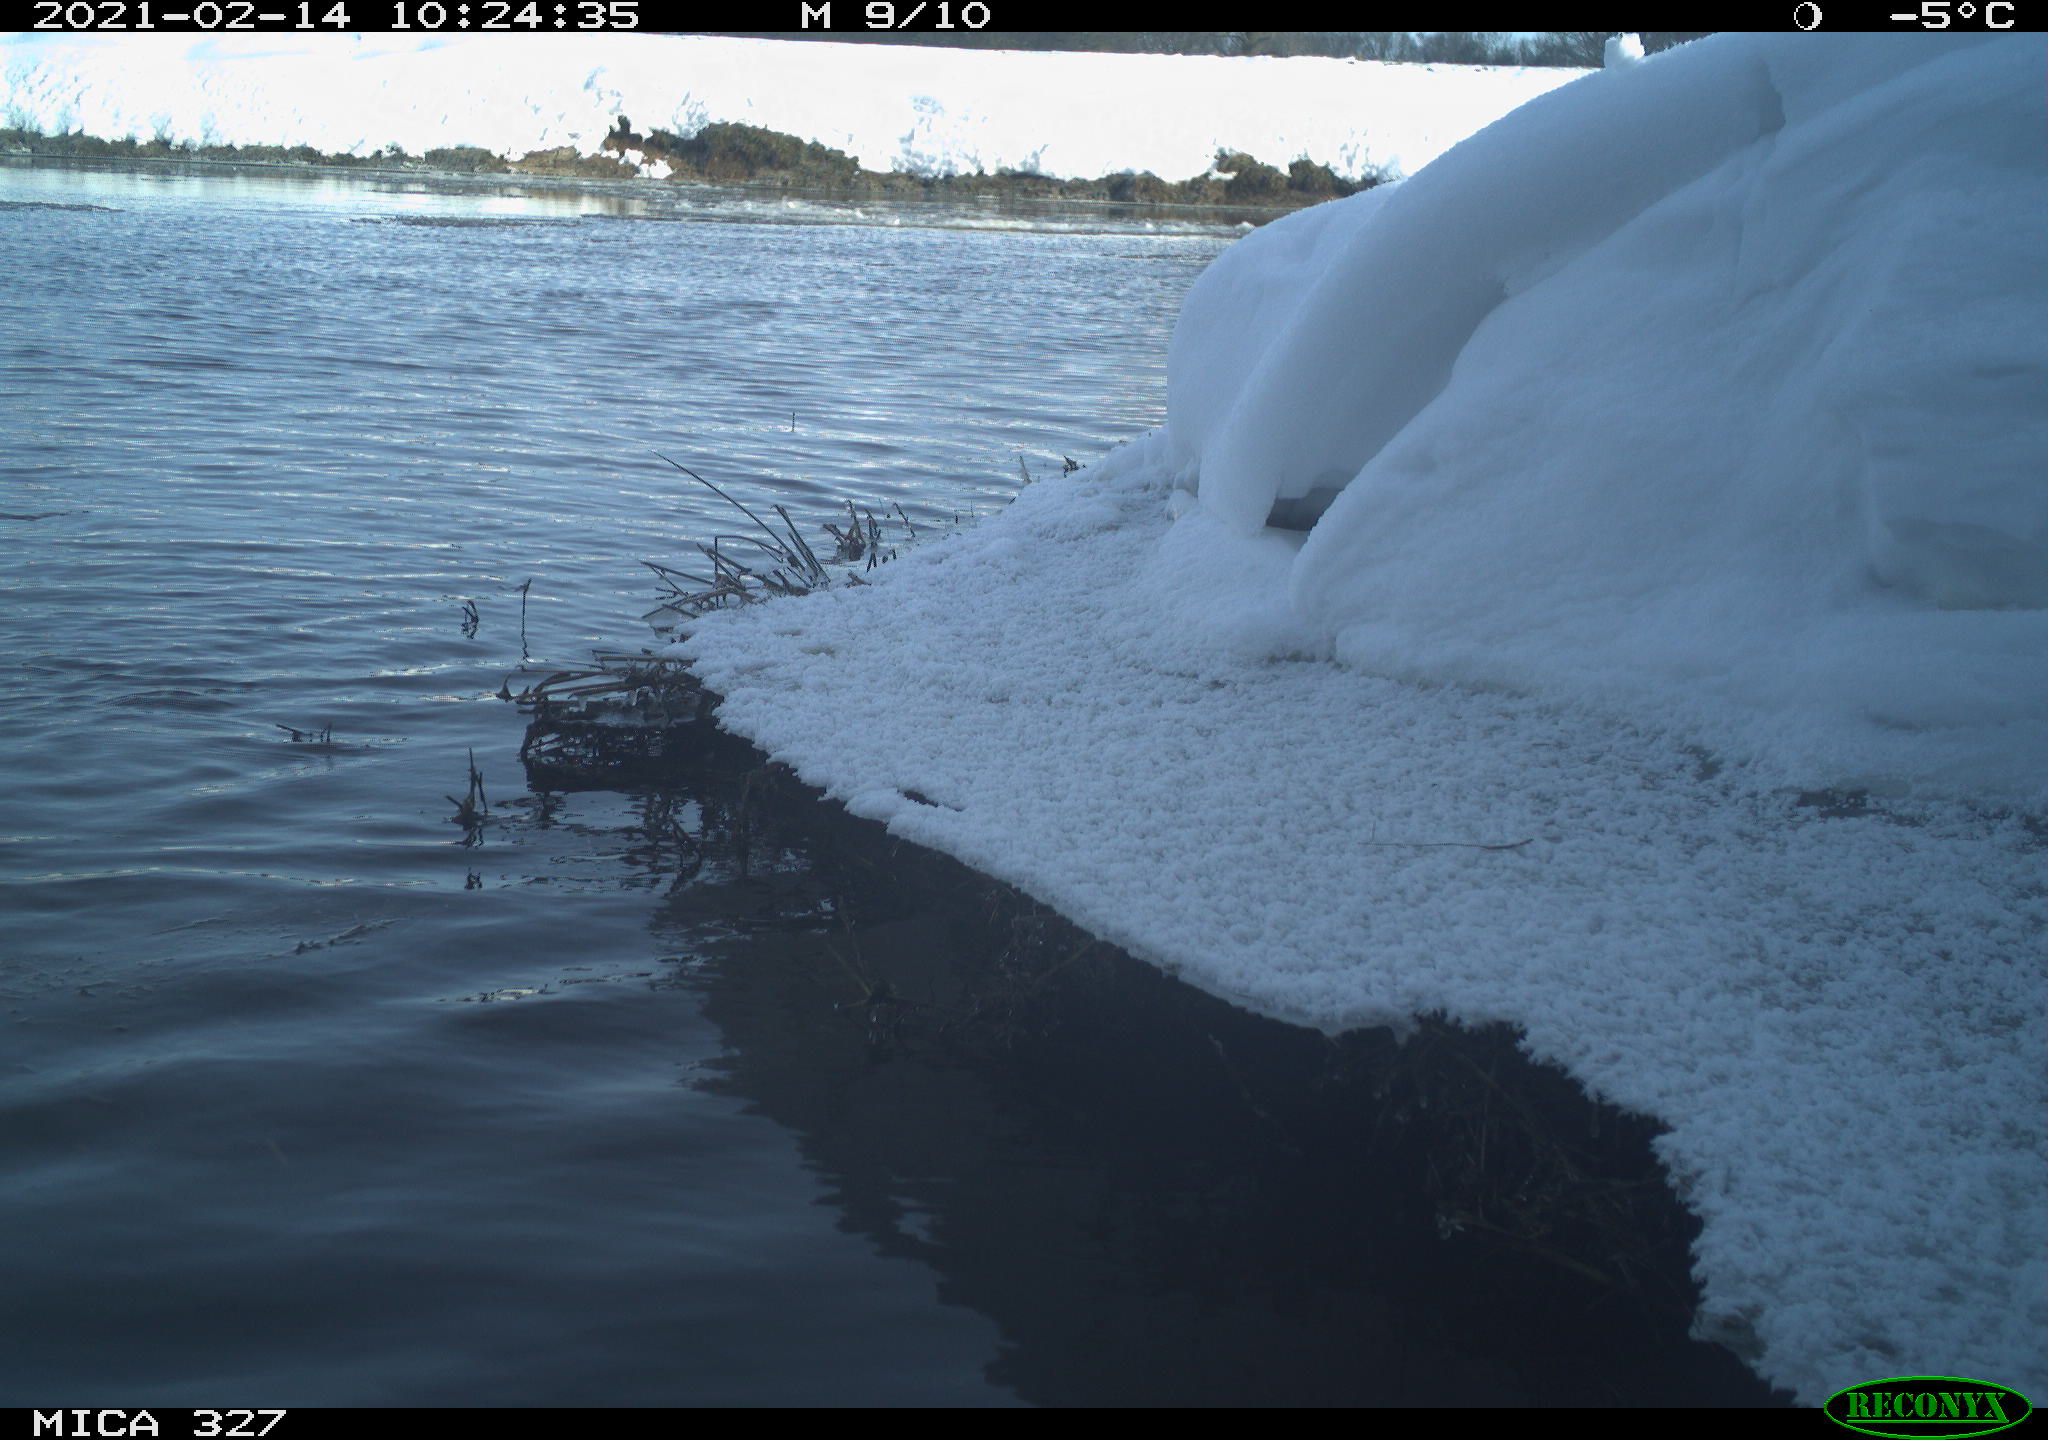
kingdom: Animalia
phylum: Chordata
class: Aves
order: Suliformes
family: Phalacrocoracidae
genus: Phalacrocorax
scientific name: Phalacrocorax carbo
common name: Great cormorant
